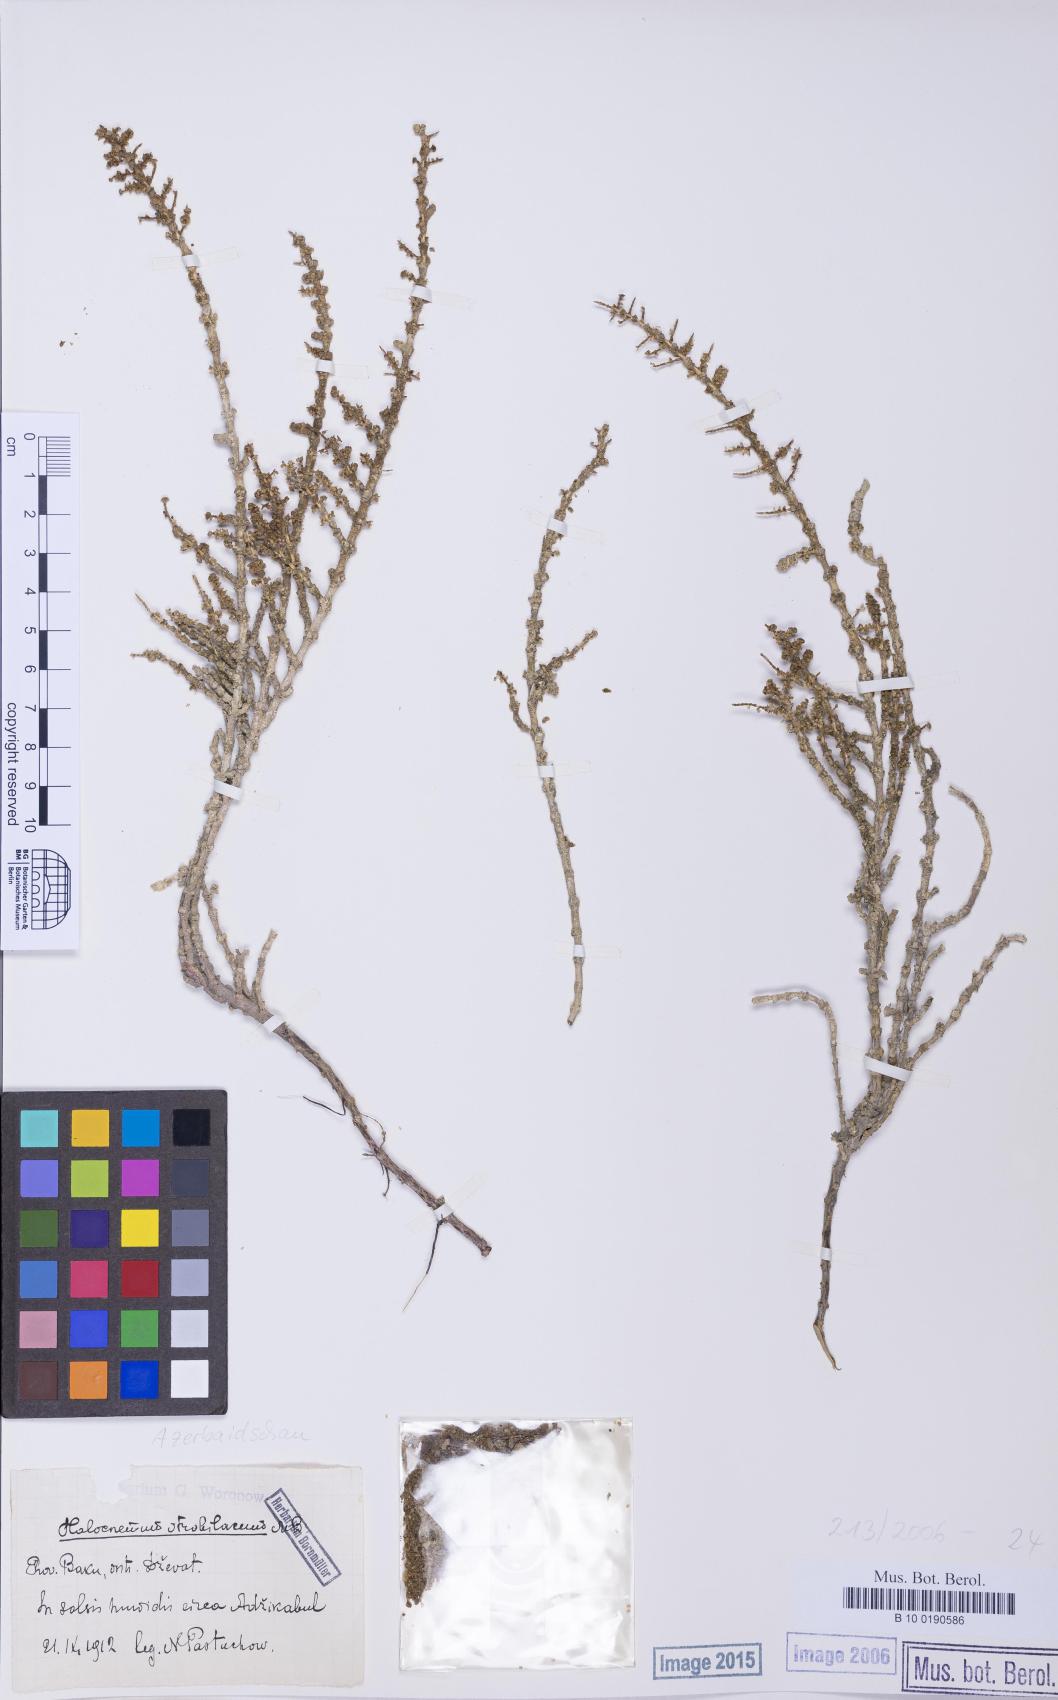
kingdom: Plantae
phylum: Tracheophyta
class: Magnoliopsida
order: Caryophyllales
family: Amaranthaceae
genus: Halocnemum
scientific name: Halocnemum strobilaceum
